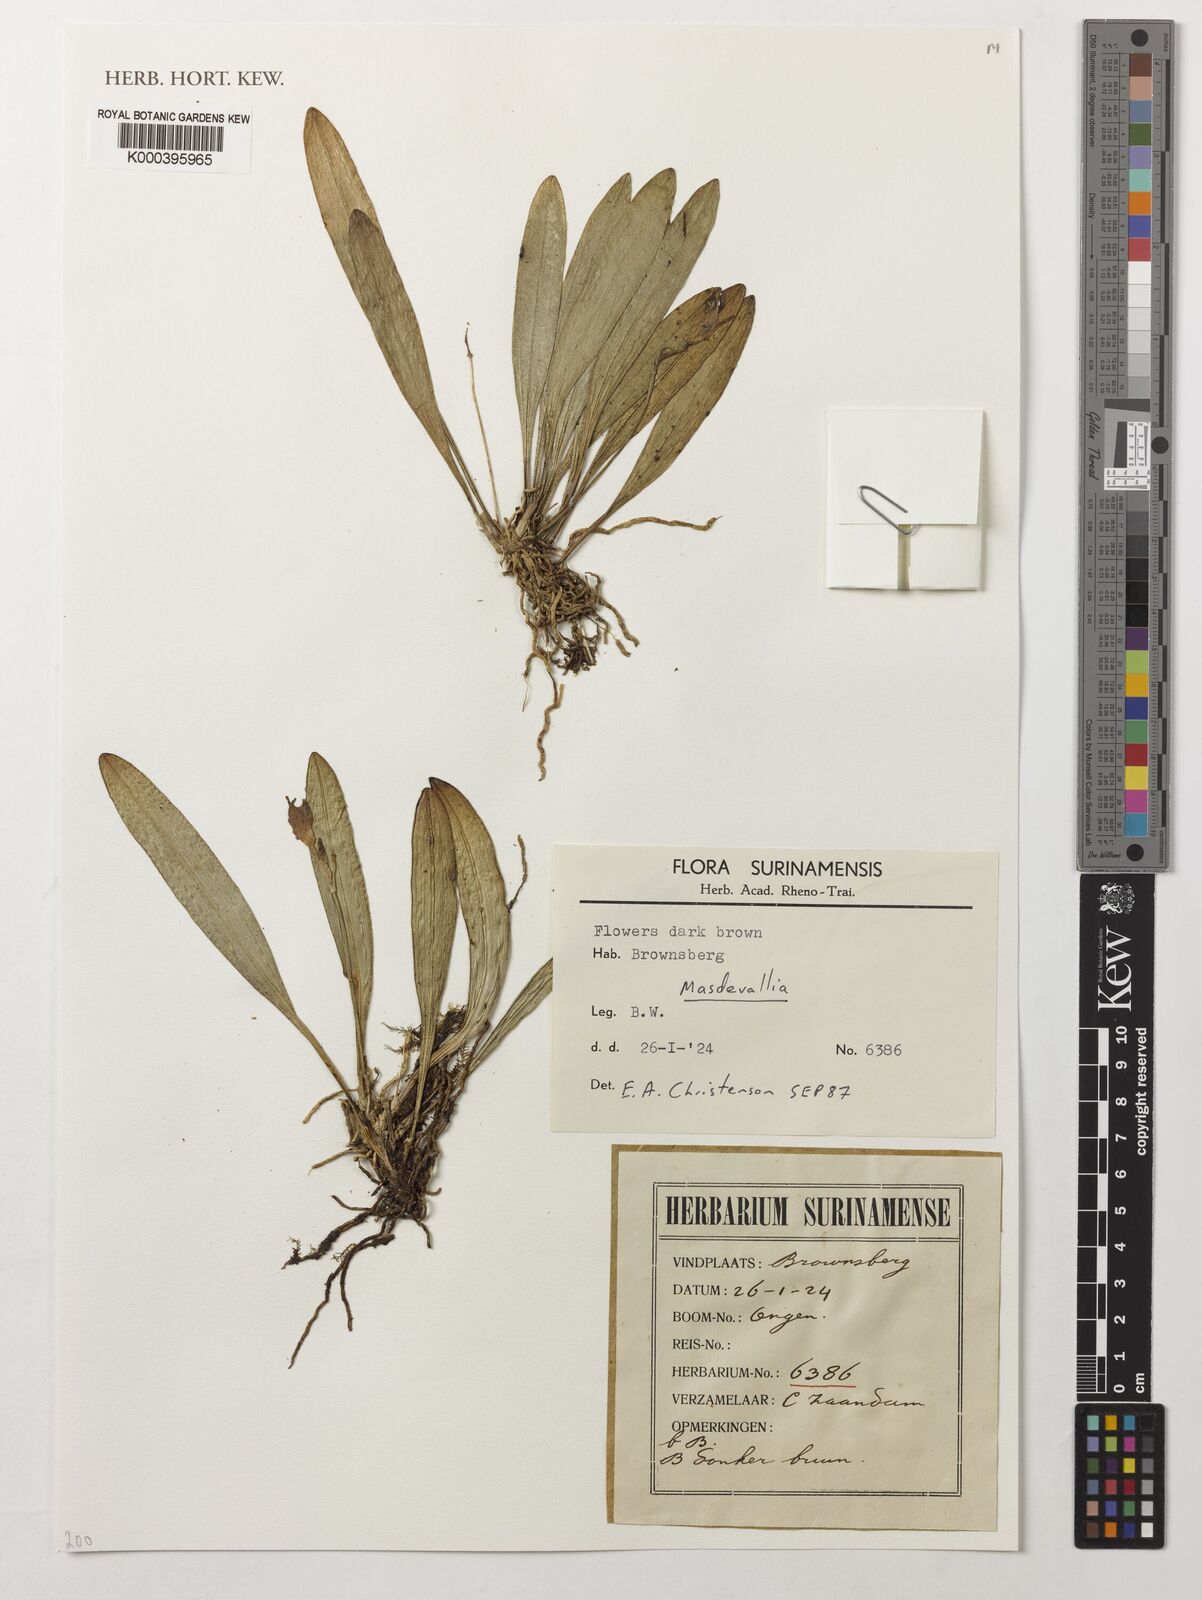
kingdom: Plantae
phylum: Tracheophyta
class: Liliopsida
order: Asparagales
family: Orchidaceae
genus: Masdevallia
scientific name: Masdevallia
